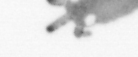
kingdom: Animalia
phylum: Annelida
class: Polychaeta
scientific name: Polychaeta
